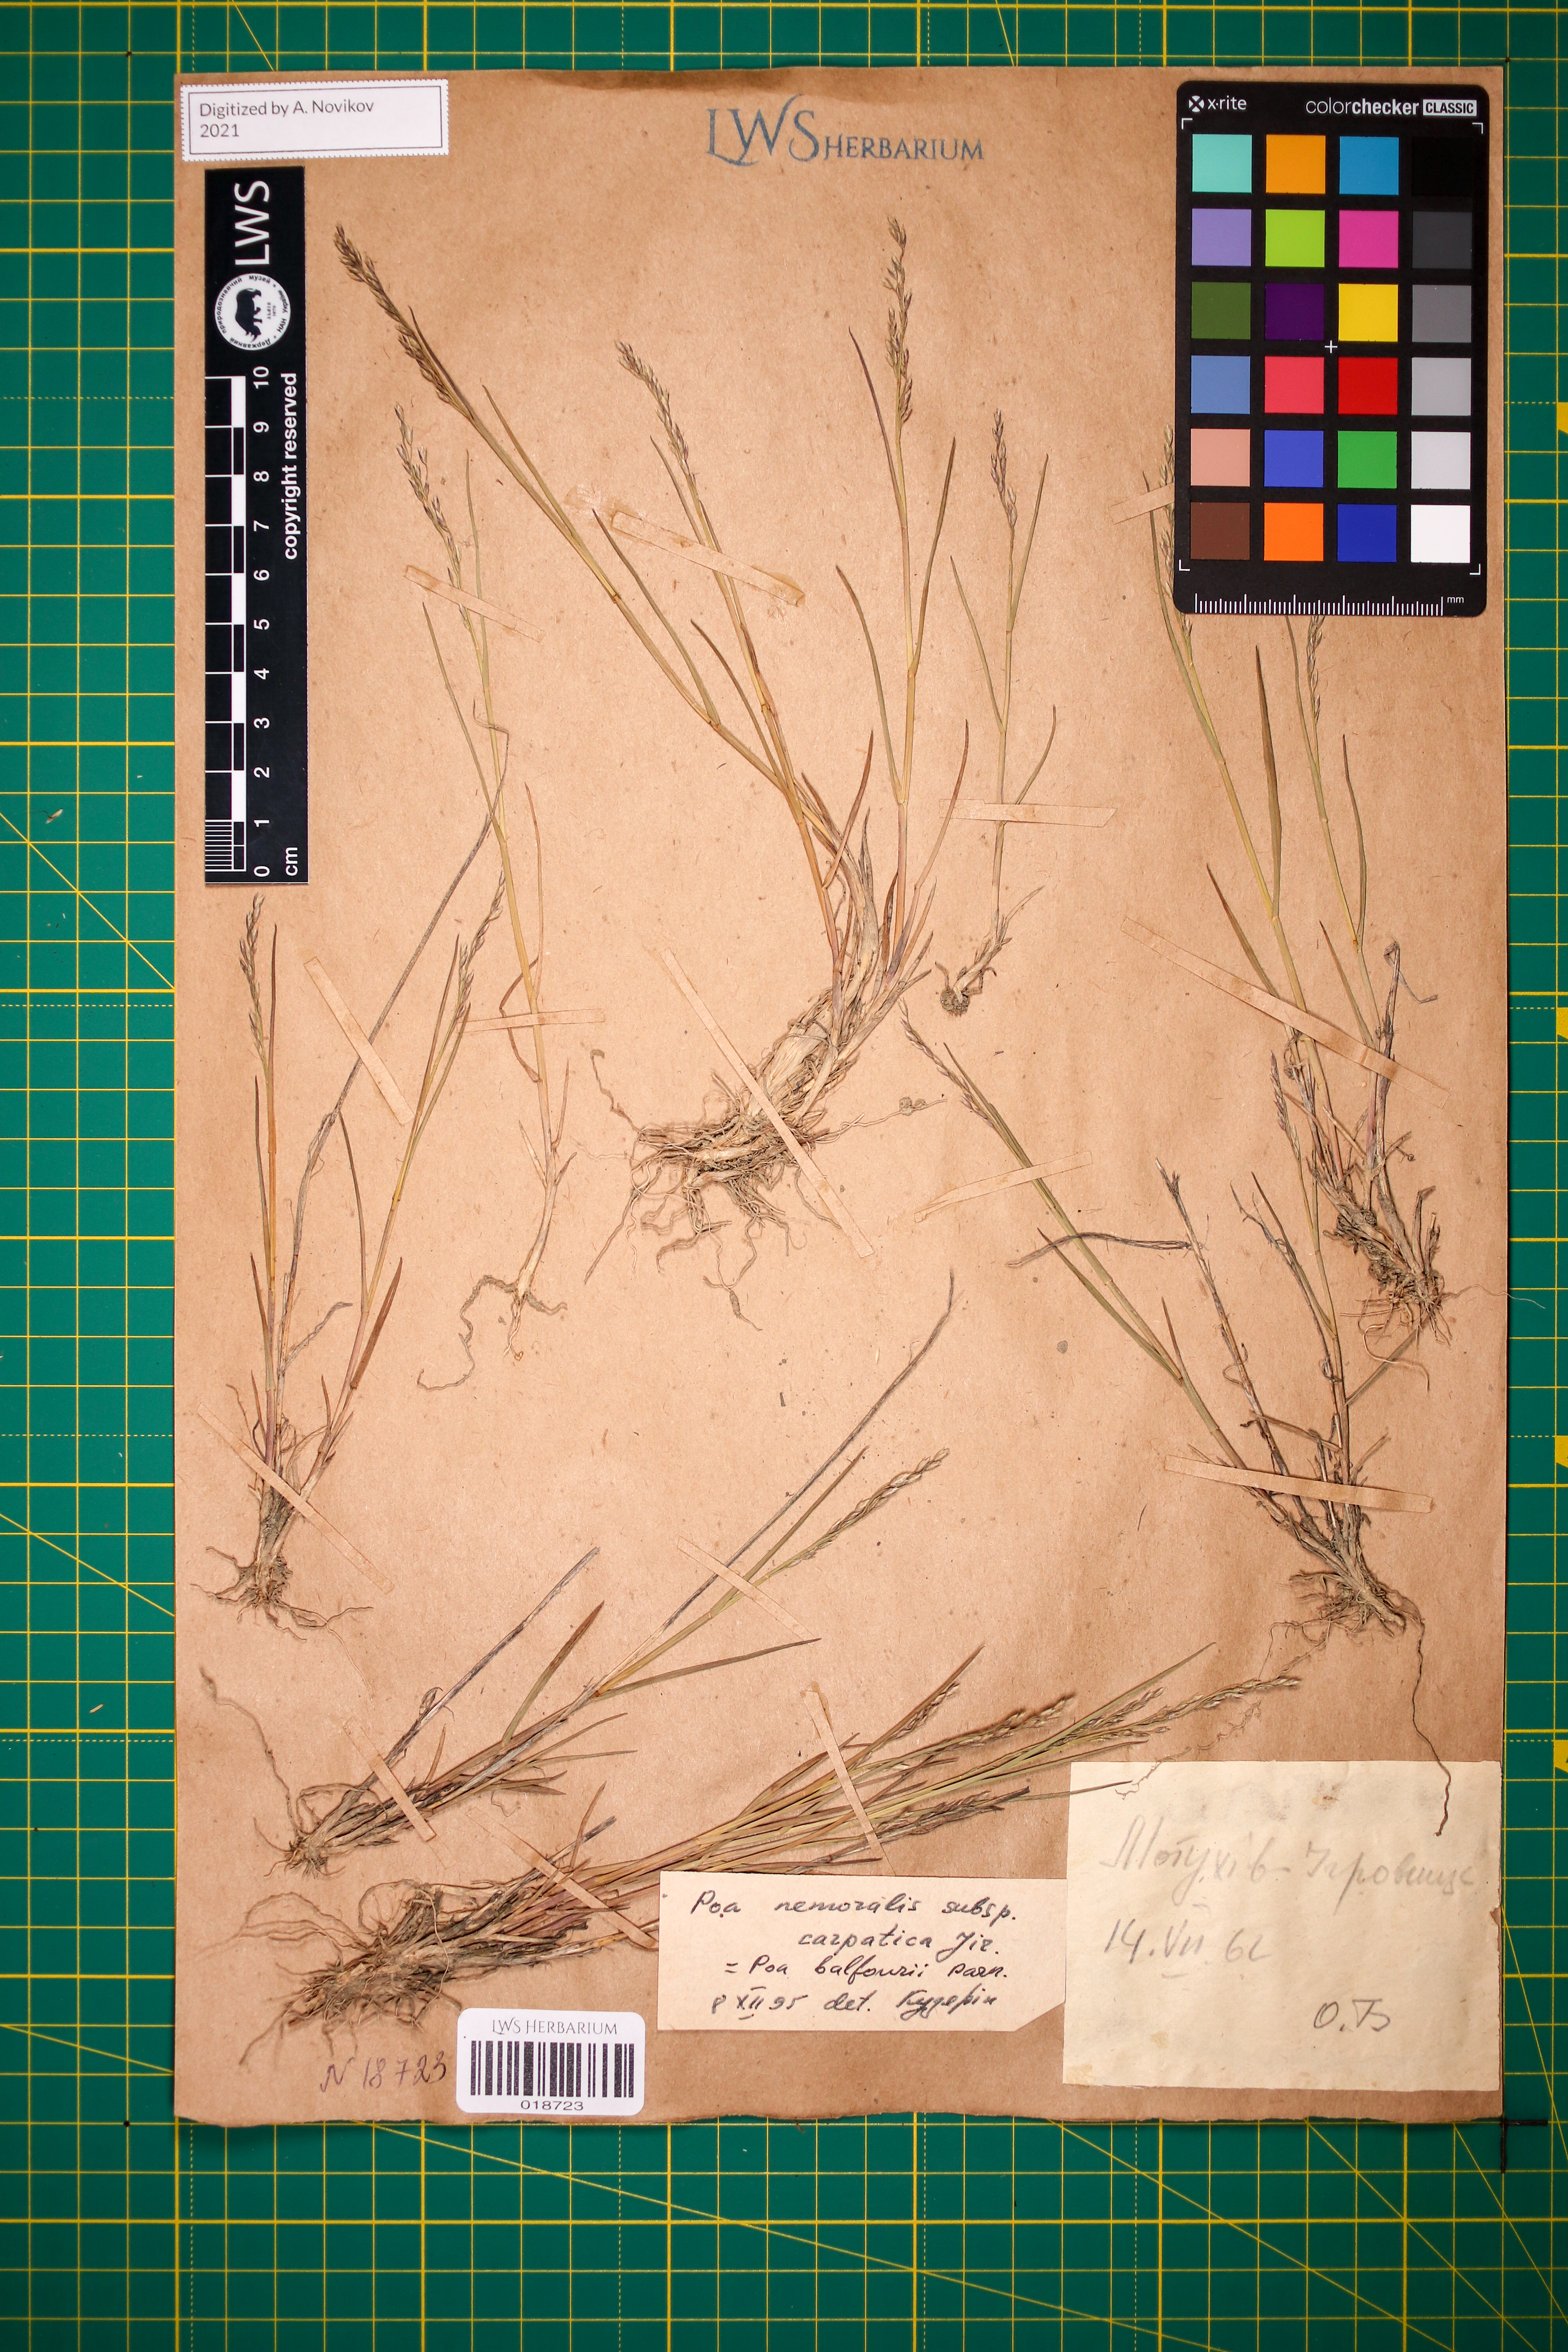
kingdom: Plantae
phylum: Tracheophyta
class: Liliopsida
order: Poales
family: Poaceae
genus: Poa
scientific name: Poa carpatica
